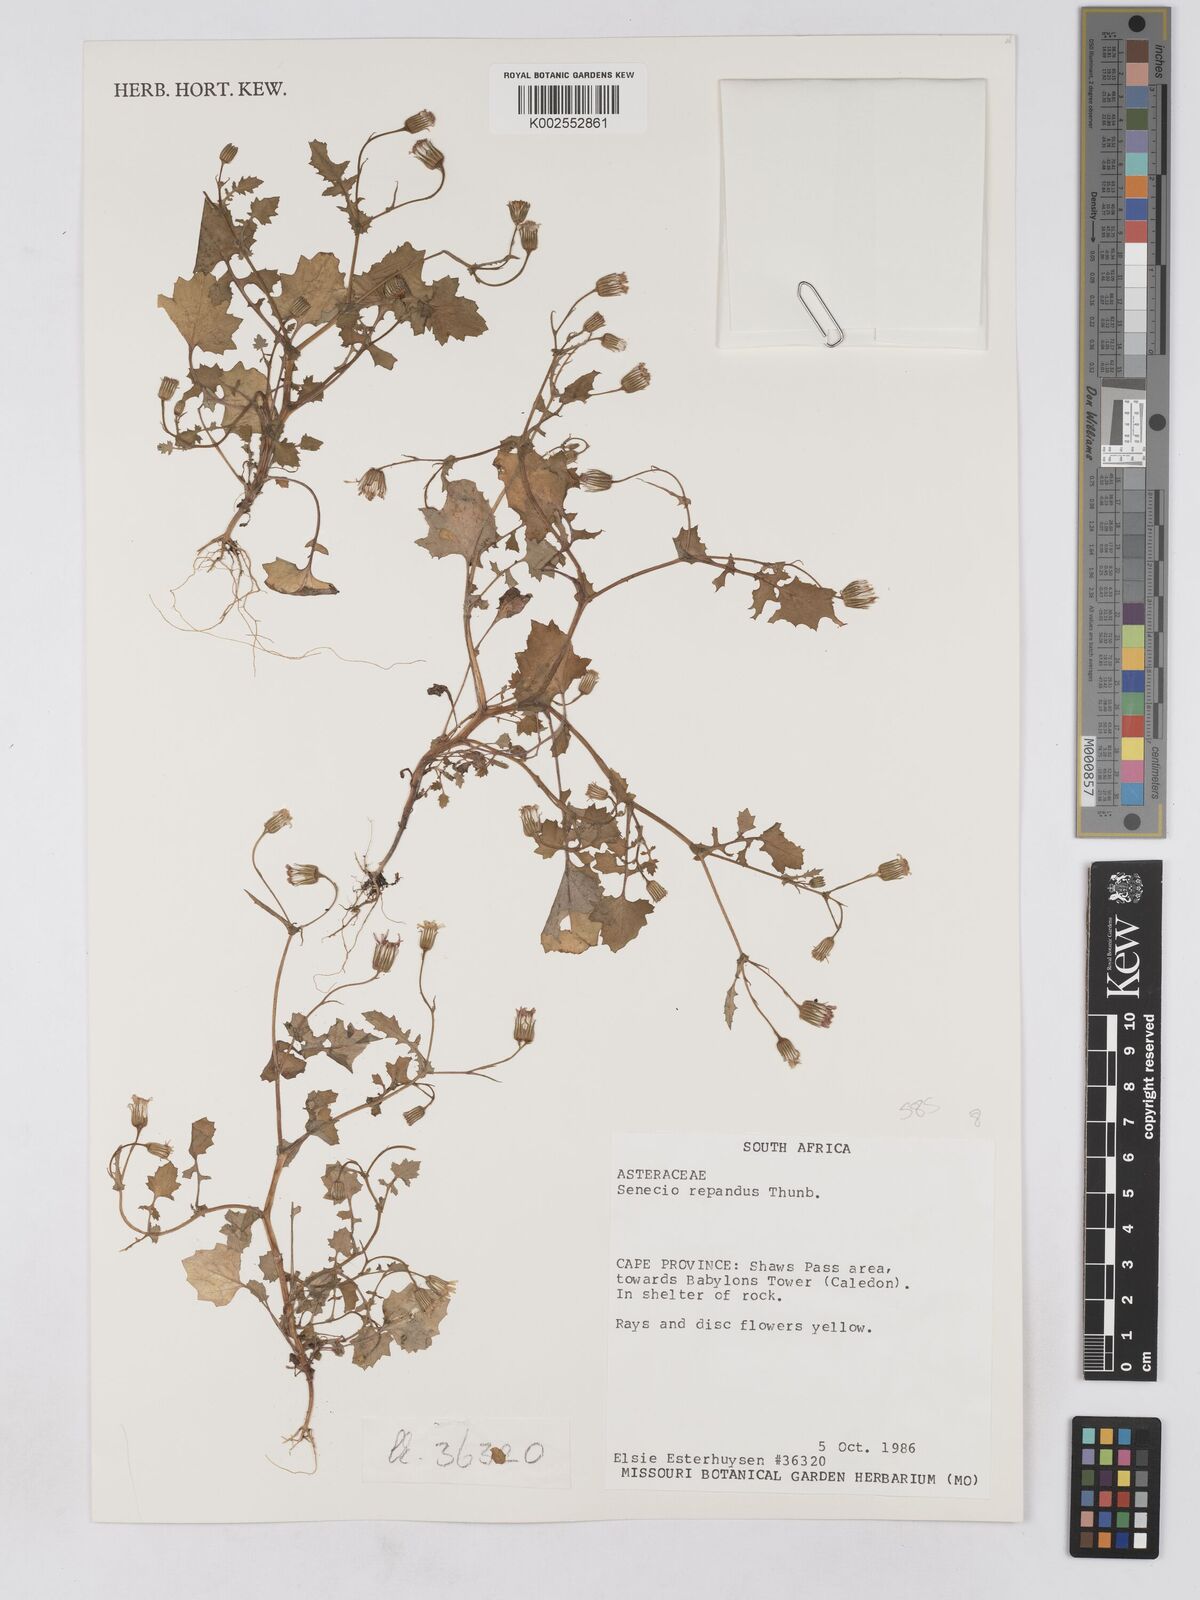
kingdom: Plantae
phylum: Tracheophyta
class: Magnoliopsida
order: Asterales
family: Asteraceae
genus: Senecio
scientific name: Senecio repandus
